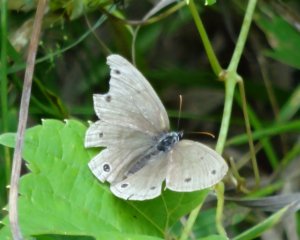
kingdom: Animalia
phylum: Arthropoda
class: Insecta
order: Lepidoptera
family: Nymphalidae
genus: Euptychia
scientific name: Euptychia cymela
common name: Little Wood Satyr
